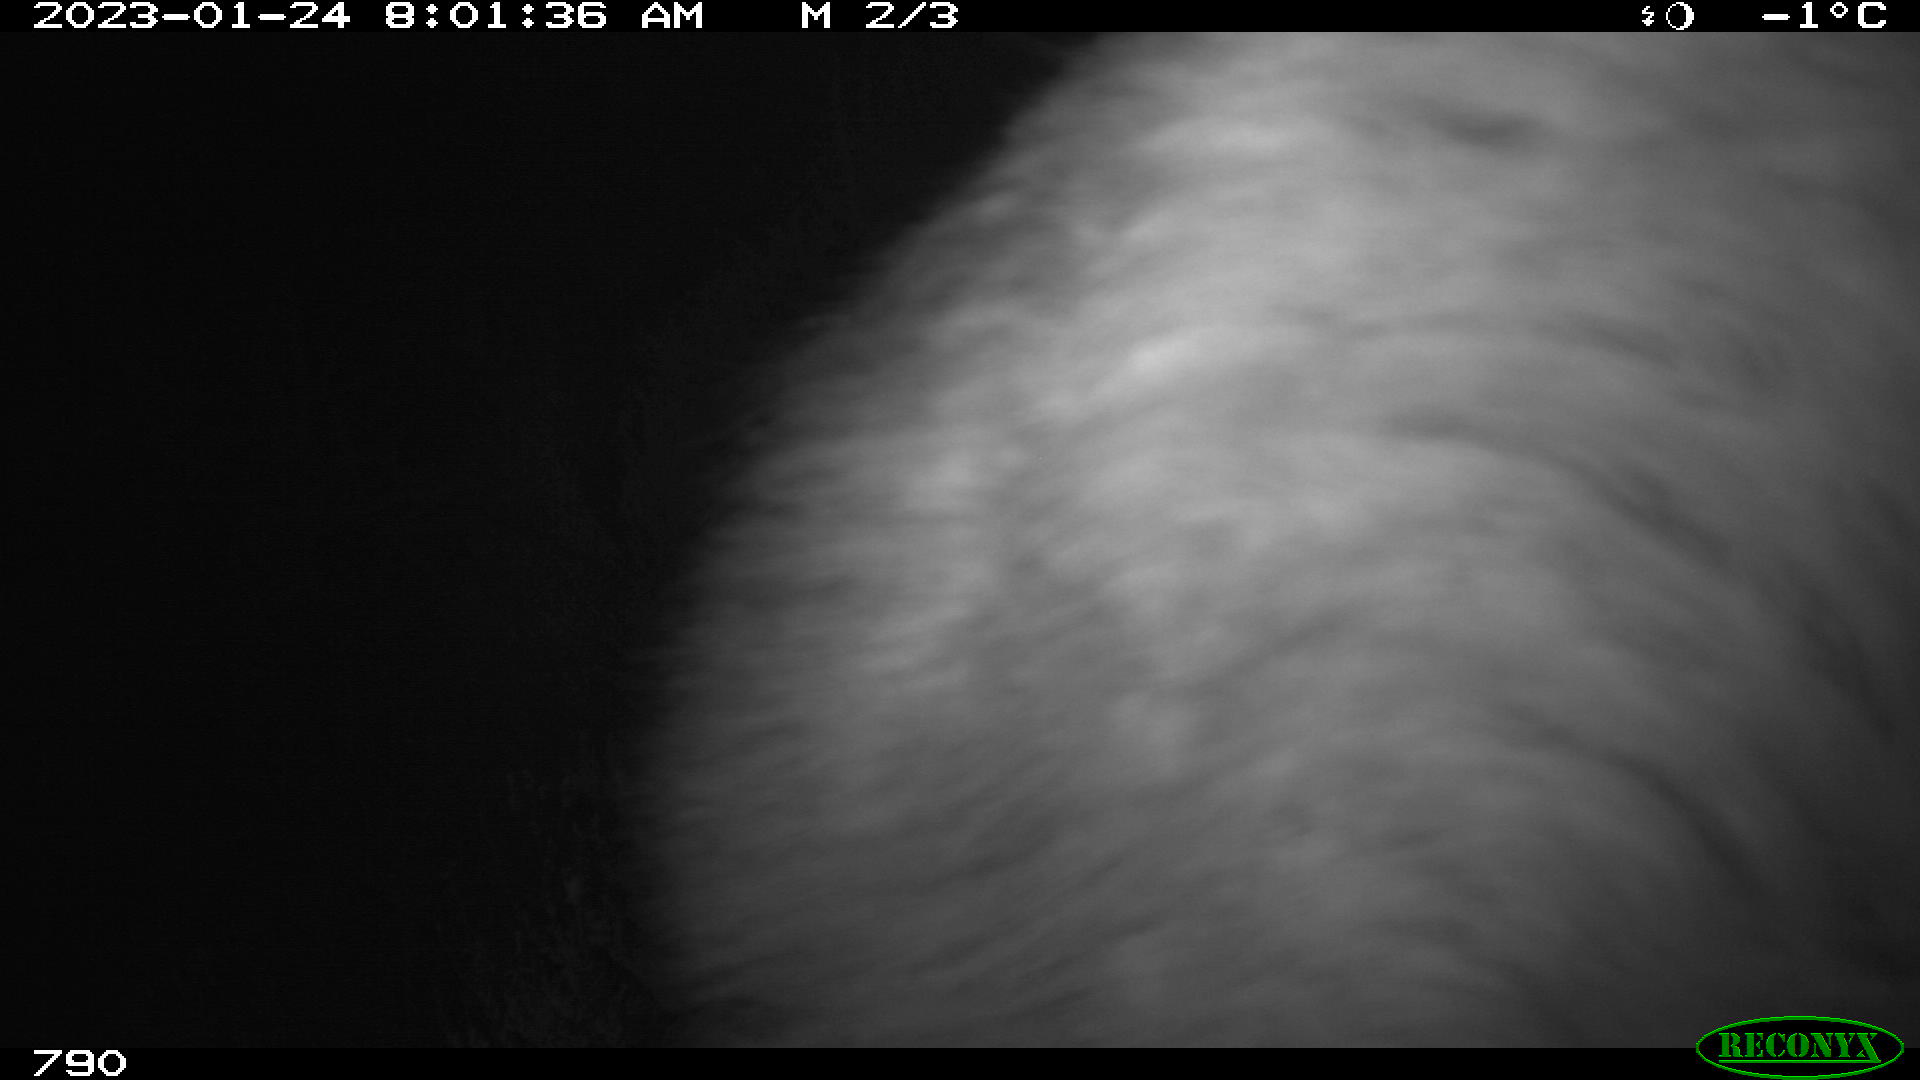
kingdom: Animalia
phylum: Chordata
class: Mammalia
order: Perissodactyla
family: Equidae
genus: Equus
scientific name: Equus caballus
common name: Horse
